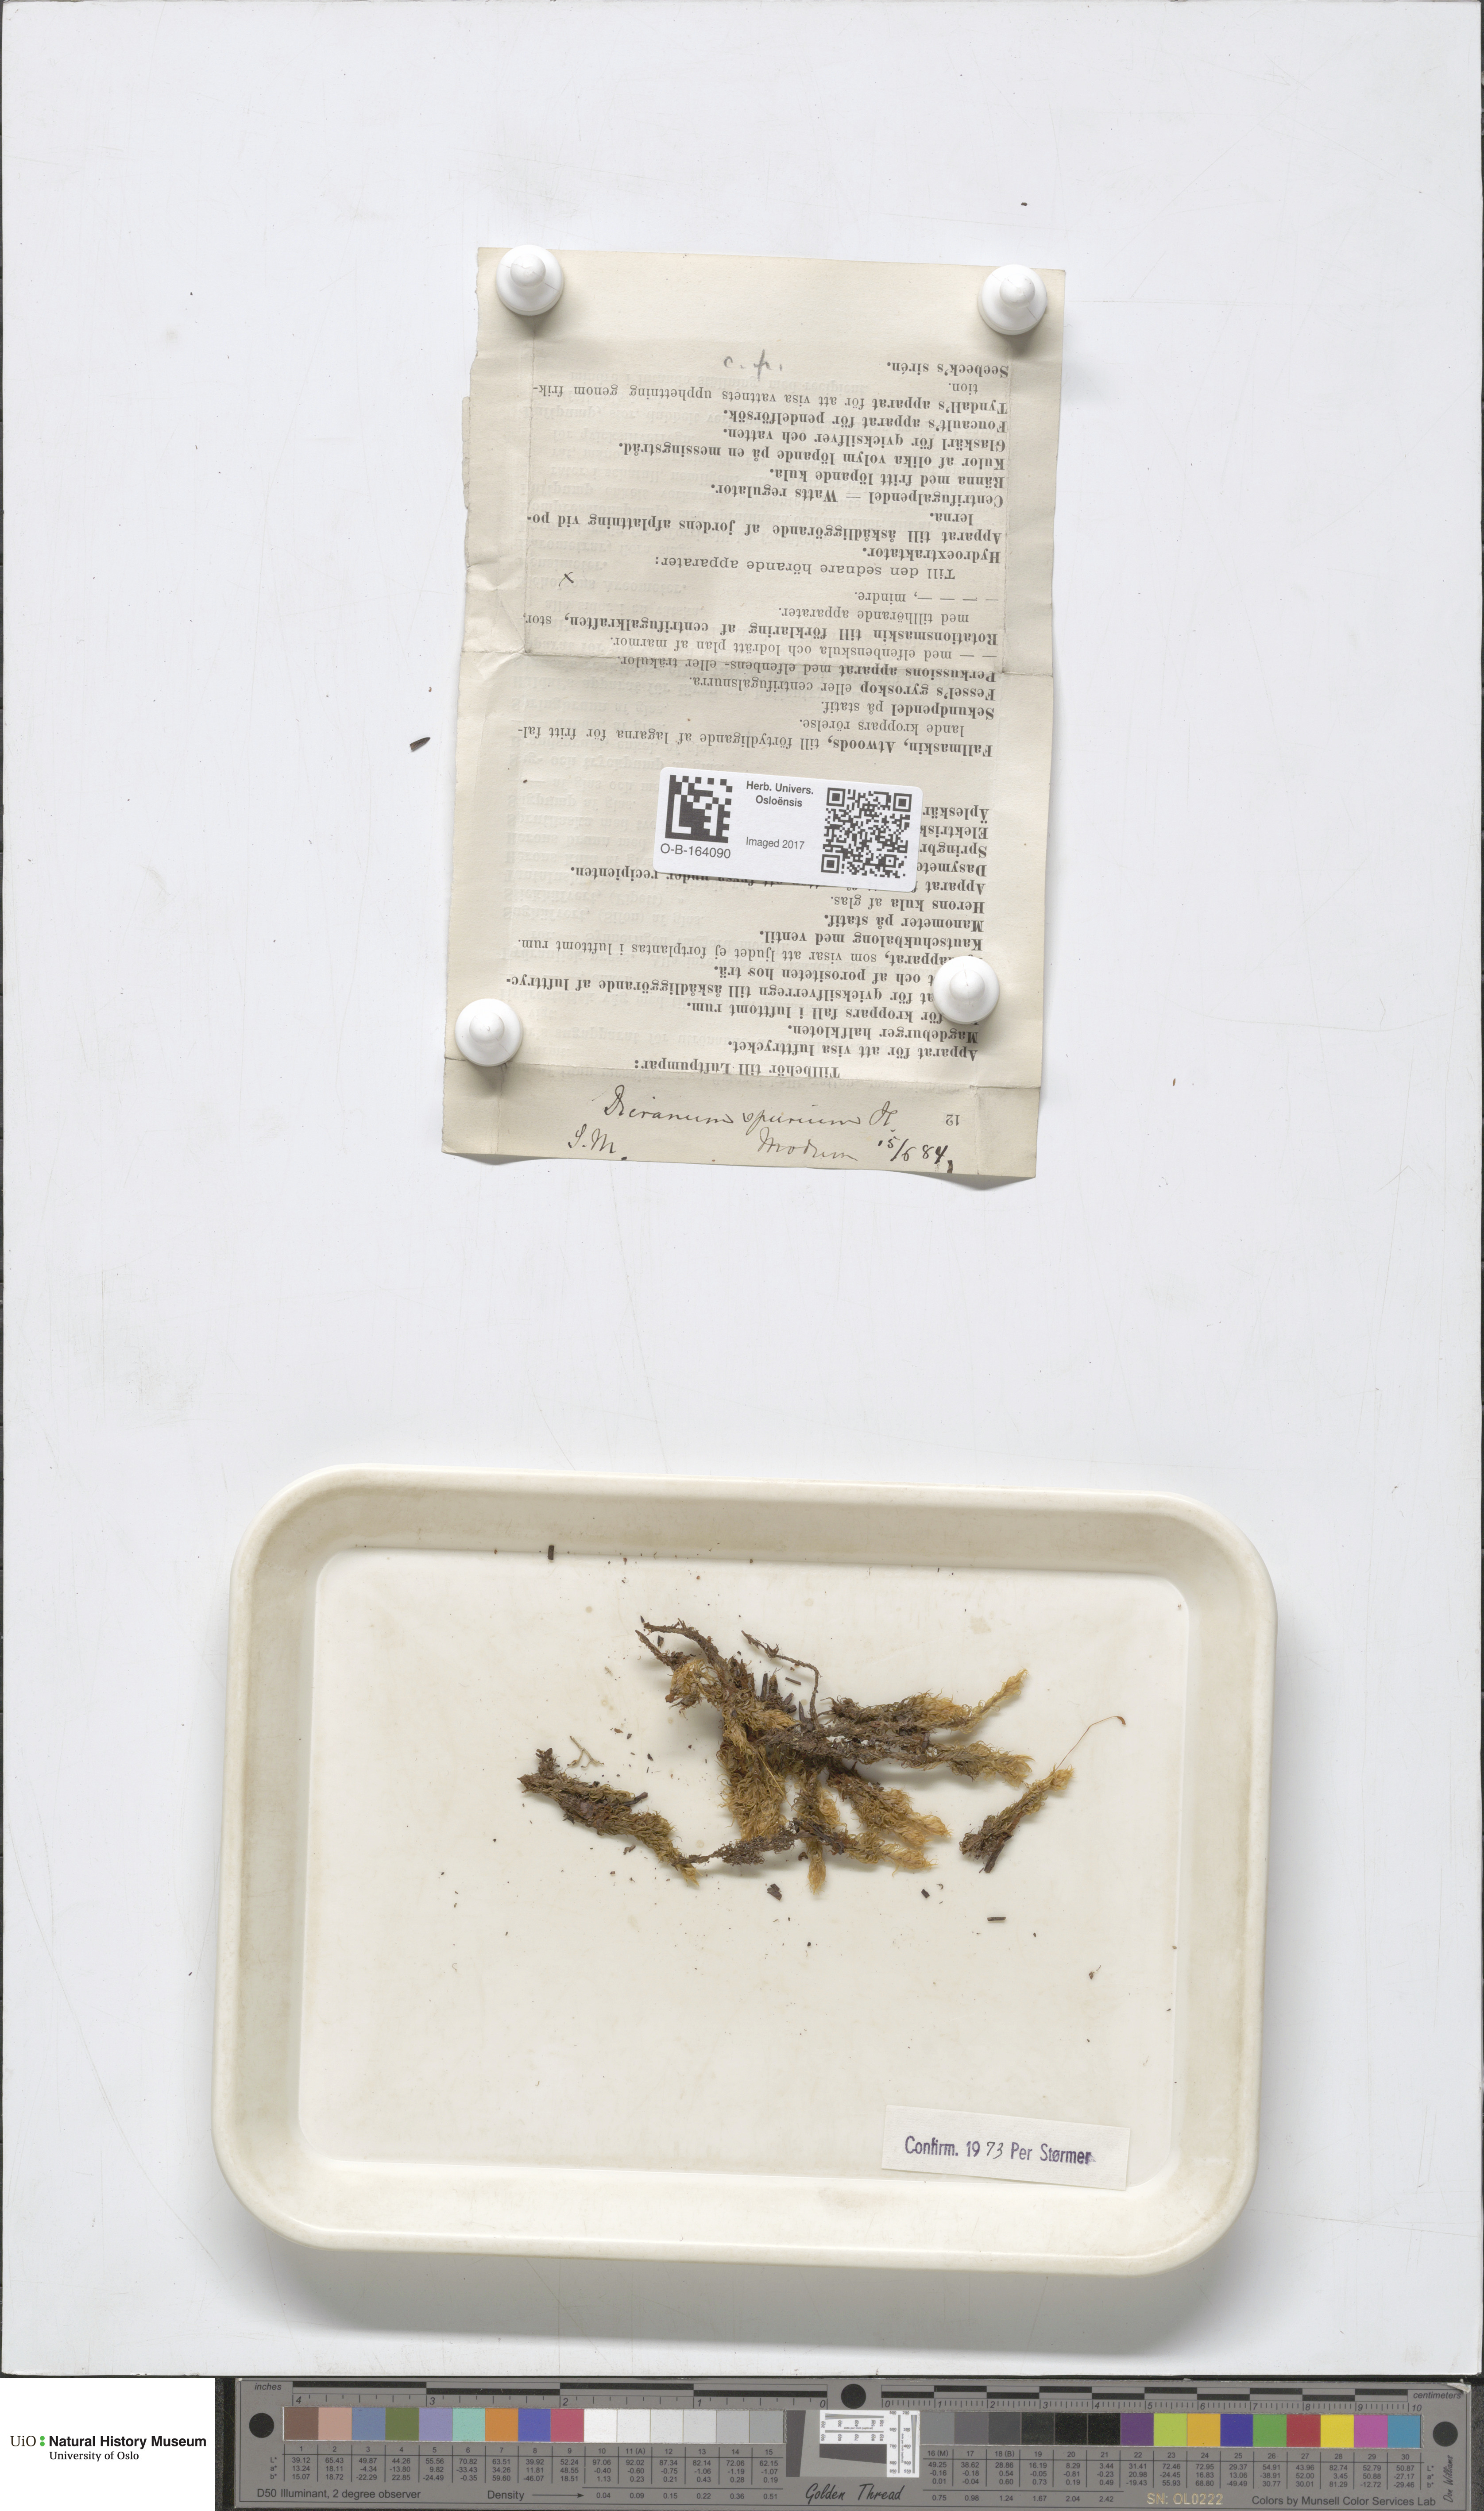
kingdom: Plantae
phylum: Bryophyta
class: Bryopsida
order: Dicranales
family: Dicranaceae
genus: Dicranum
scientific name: Dicranum spurium
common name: Spurred broom moss
